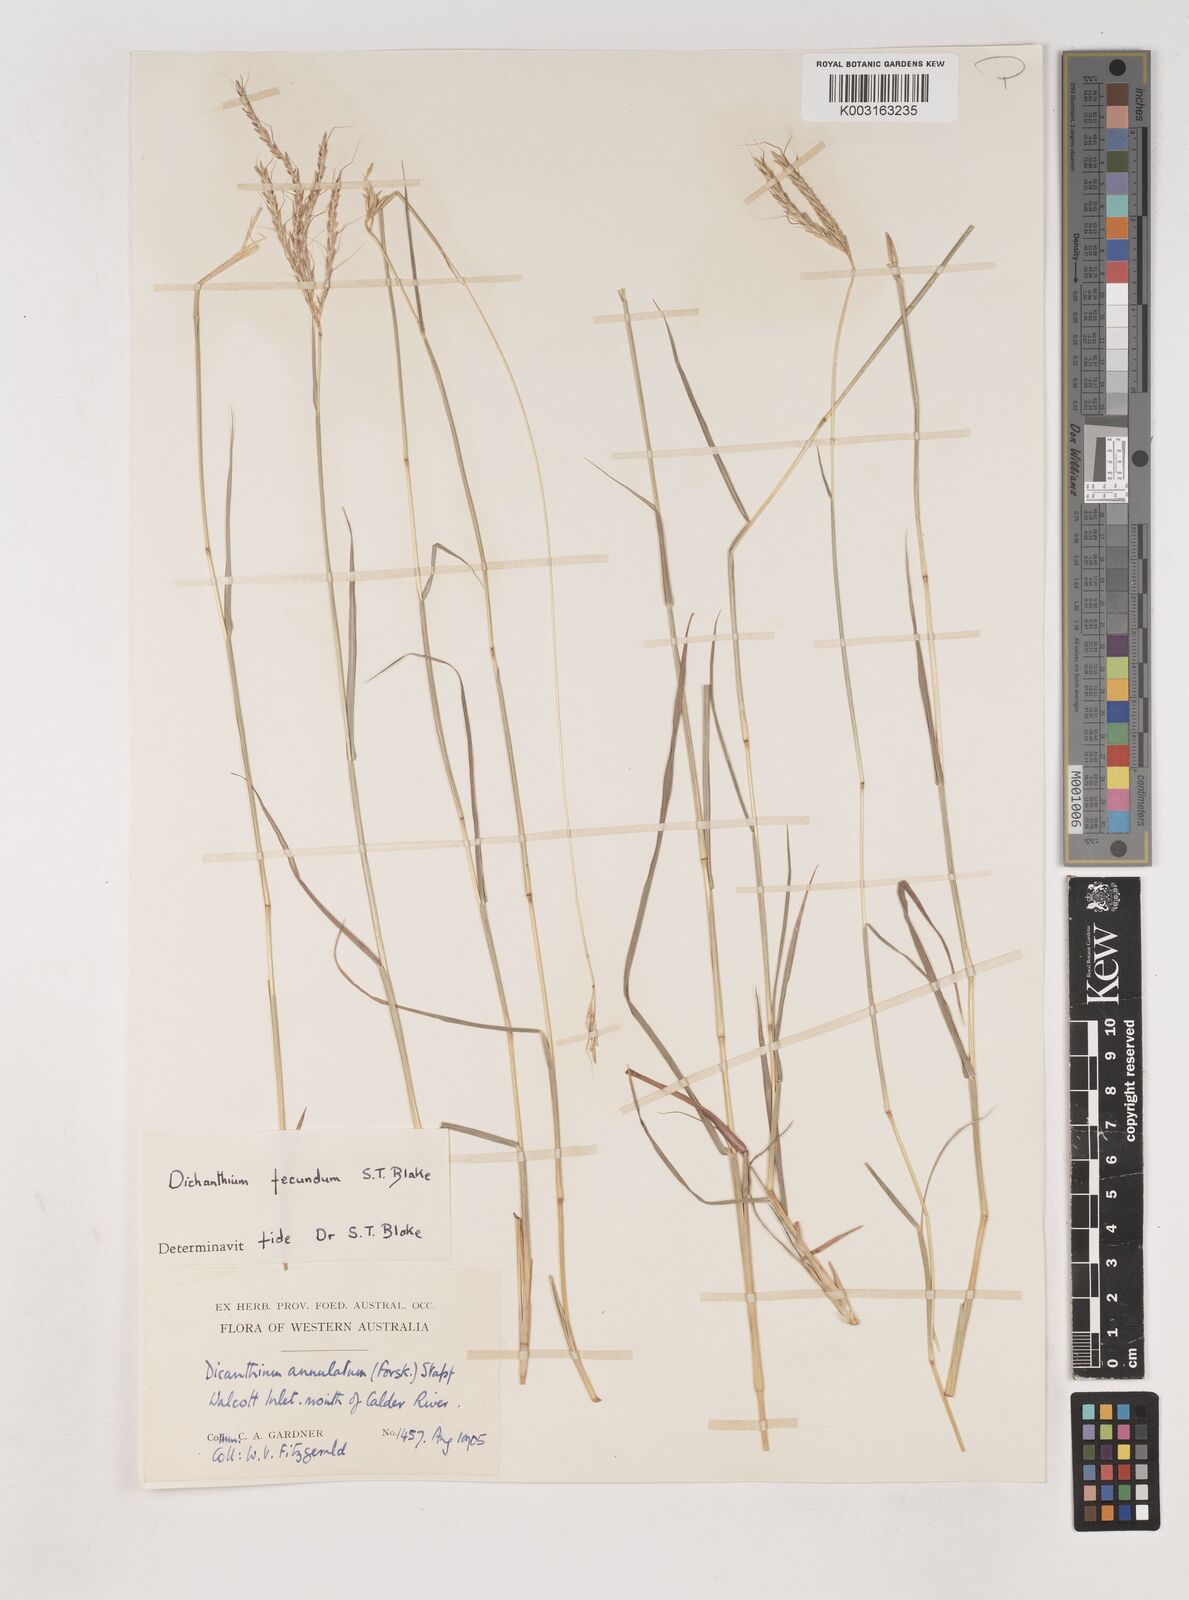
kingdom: Plantae
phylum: Tracheophyta
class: Liliopsida
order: Poales
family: Poaceae
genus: Dichanthium
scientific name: Dichanthium fecundum
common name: Bundle-bundle
